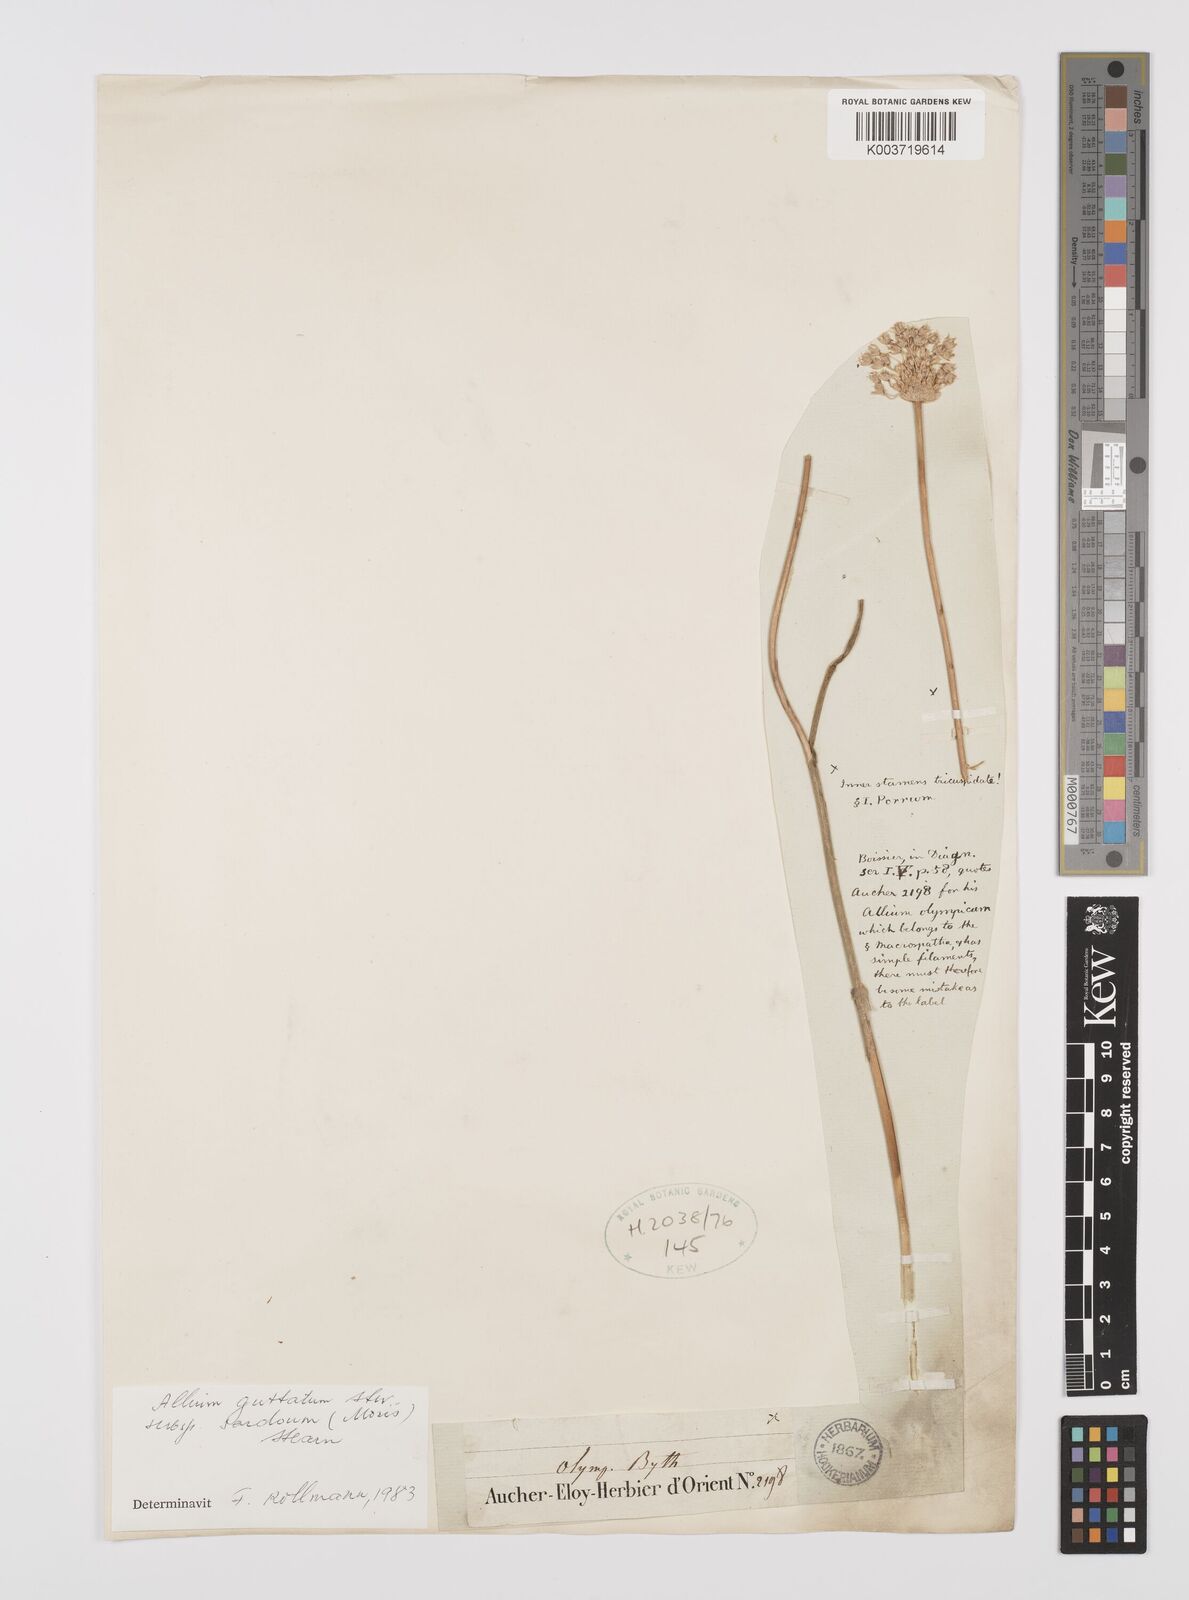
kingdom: Plantae
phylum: Tracheophyta
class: Liliopsida
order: Asparagales
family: Amaryllidaceae
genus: Allium
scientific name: Allium guttatum
